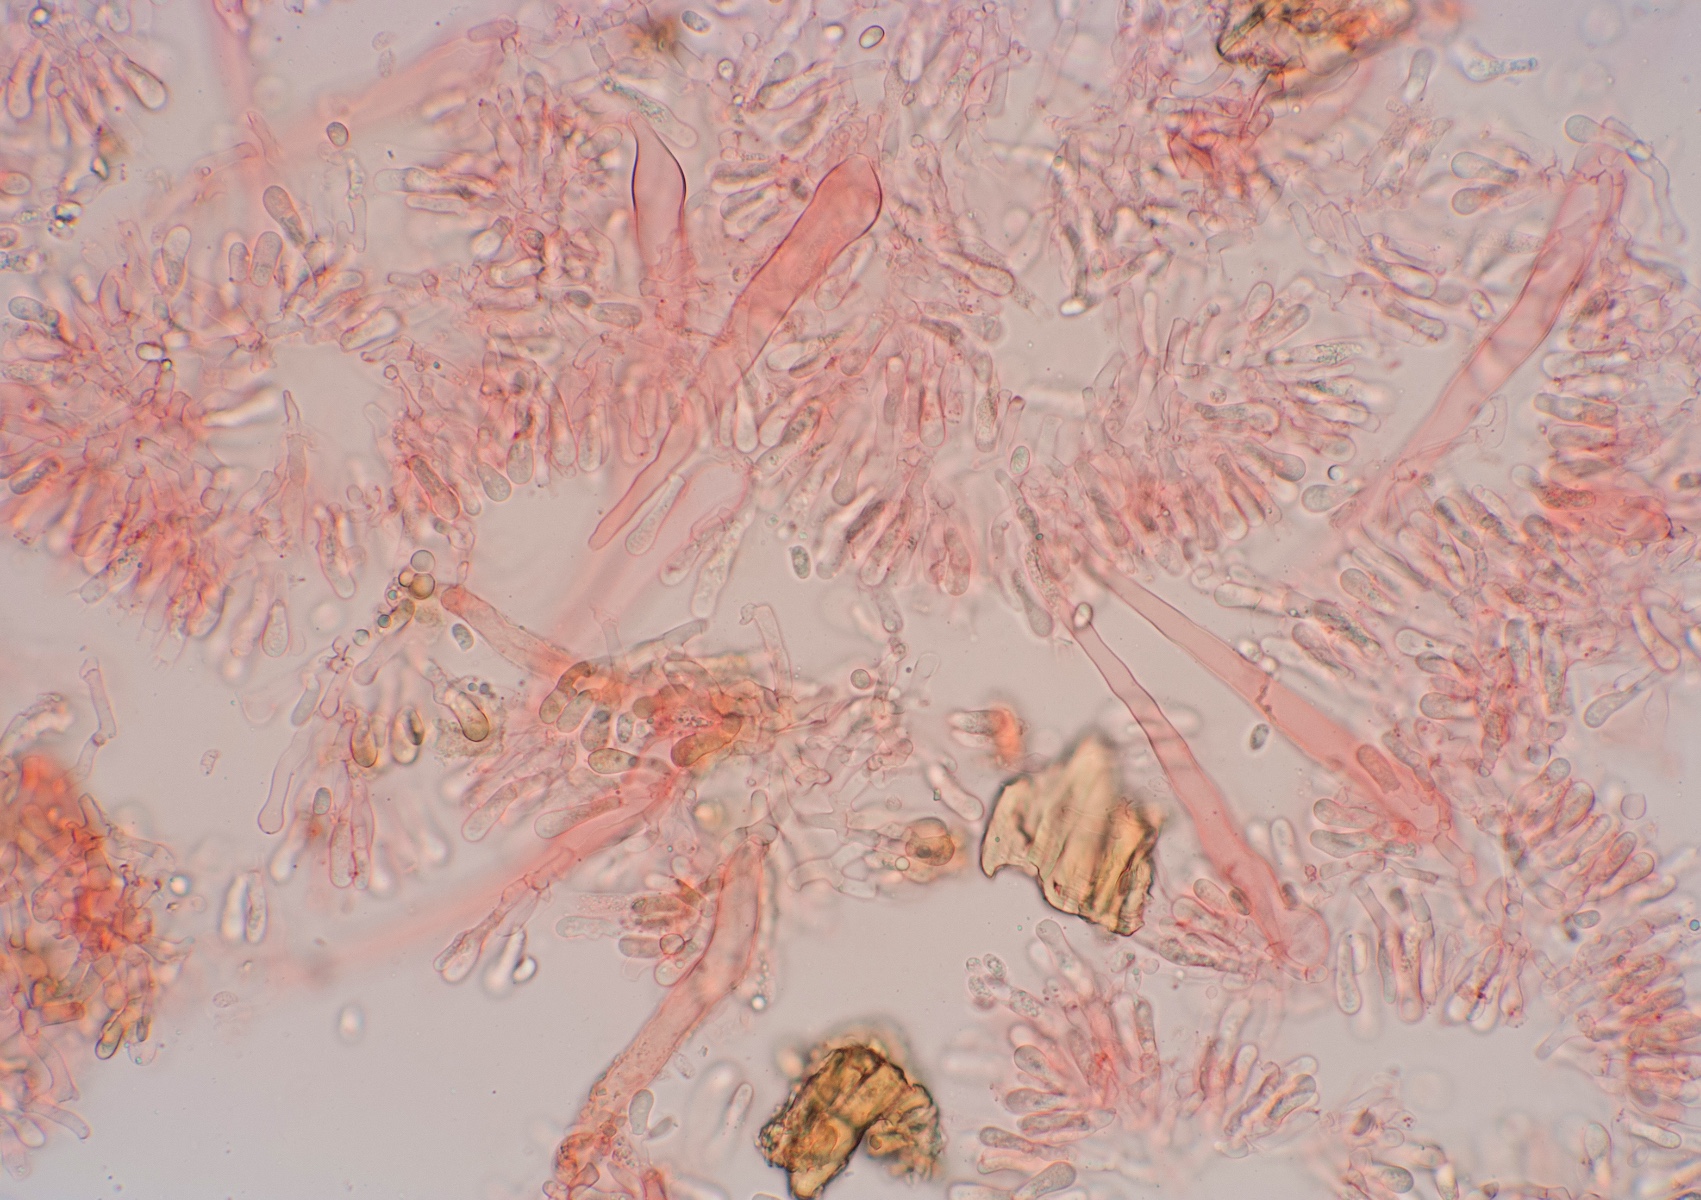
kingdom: Fungi
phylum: Basidiomycota
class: Agaricomycetes
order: Hymenochaetales
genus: Kurtia
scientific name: Kurtia argillacea
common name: Kurts kalkskind
